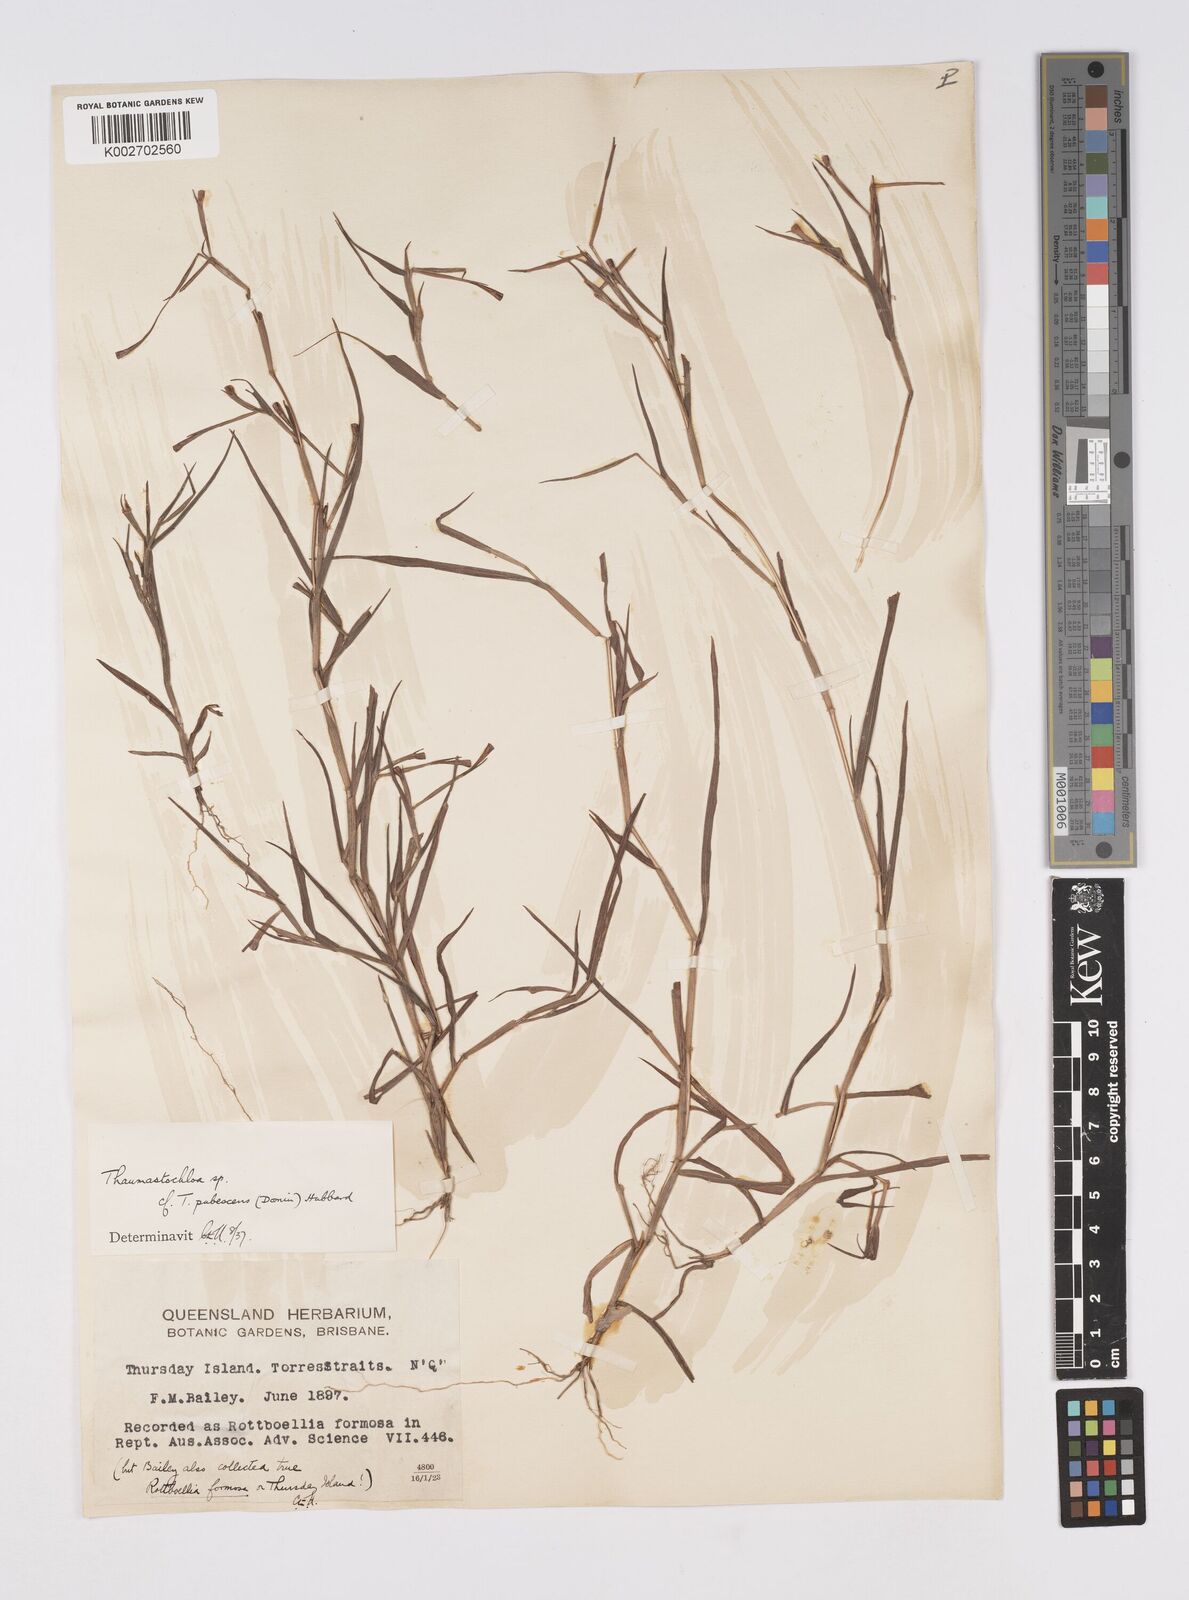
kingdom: Plantae
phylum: Tracheophyta
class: Liliopsida
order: Poales
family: Poaceae
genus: Thaumastochloa
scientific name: Thaumastochloa pubescens
